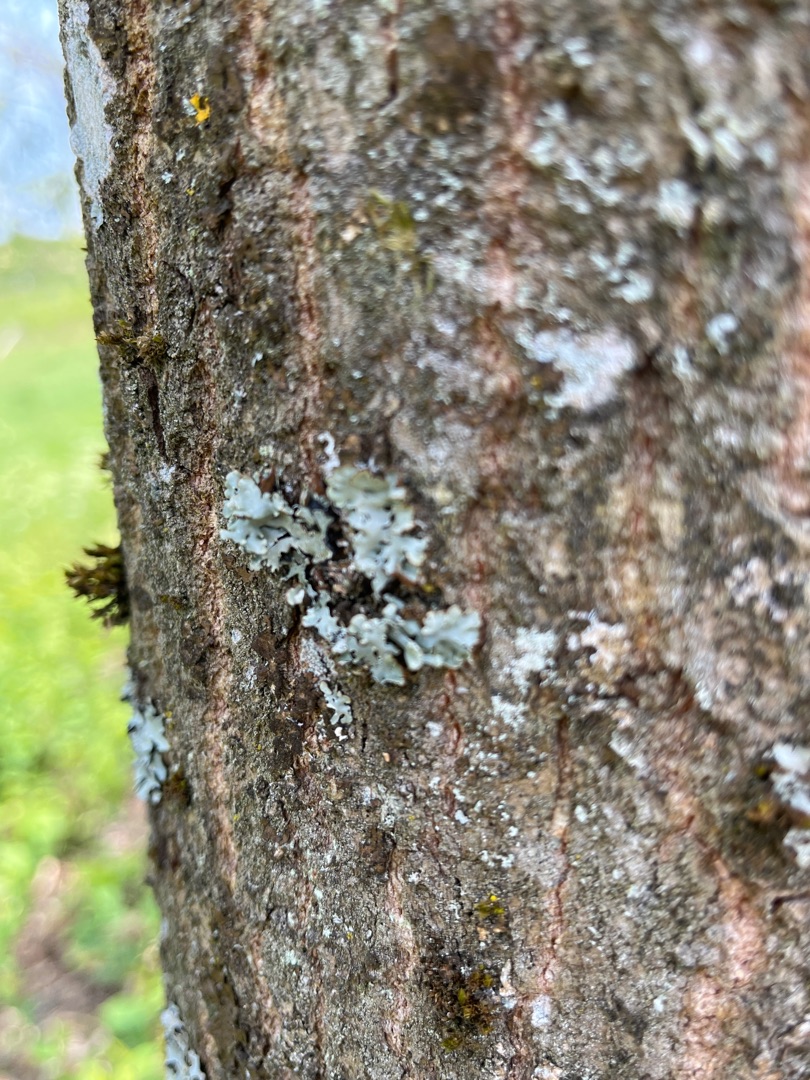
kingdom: Fungi
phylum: Ascomycota
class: Lecanoromycetes
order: Lecanorales
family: Parmeliaceae
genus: Parmelia
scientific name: Parmelia sulcata
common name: Rynket skållav
